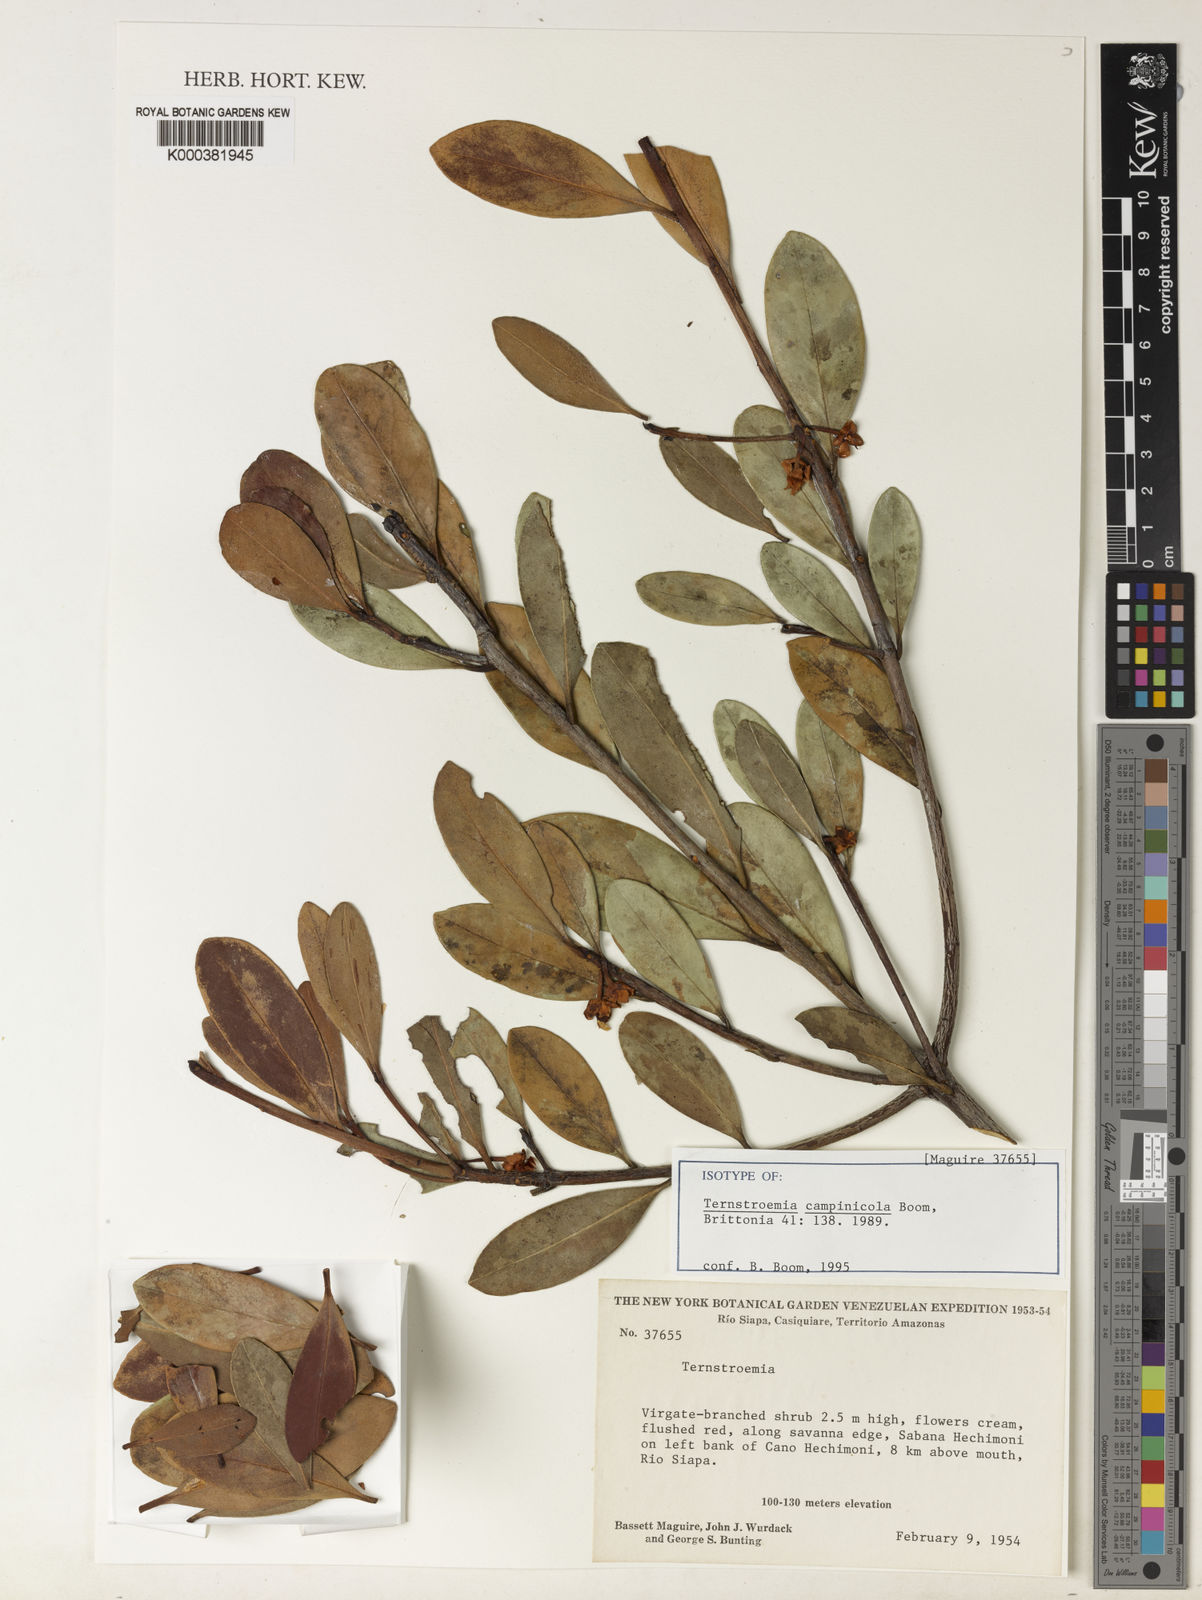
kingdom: Plantae
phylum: Tracheophyta
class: Magnoliopsida
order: Ericales
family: Pentaphylacaceae
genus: Ternstroemia
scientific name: Ternstroemia campinicola
